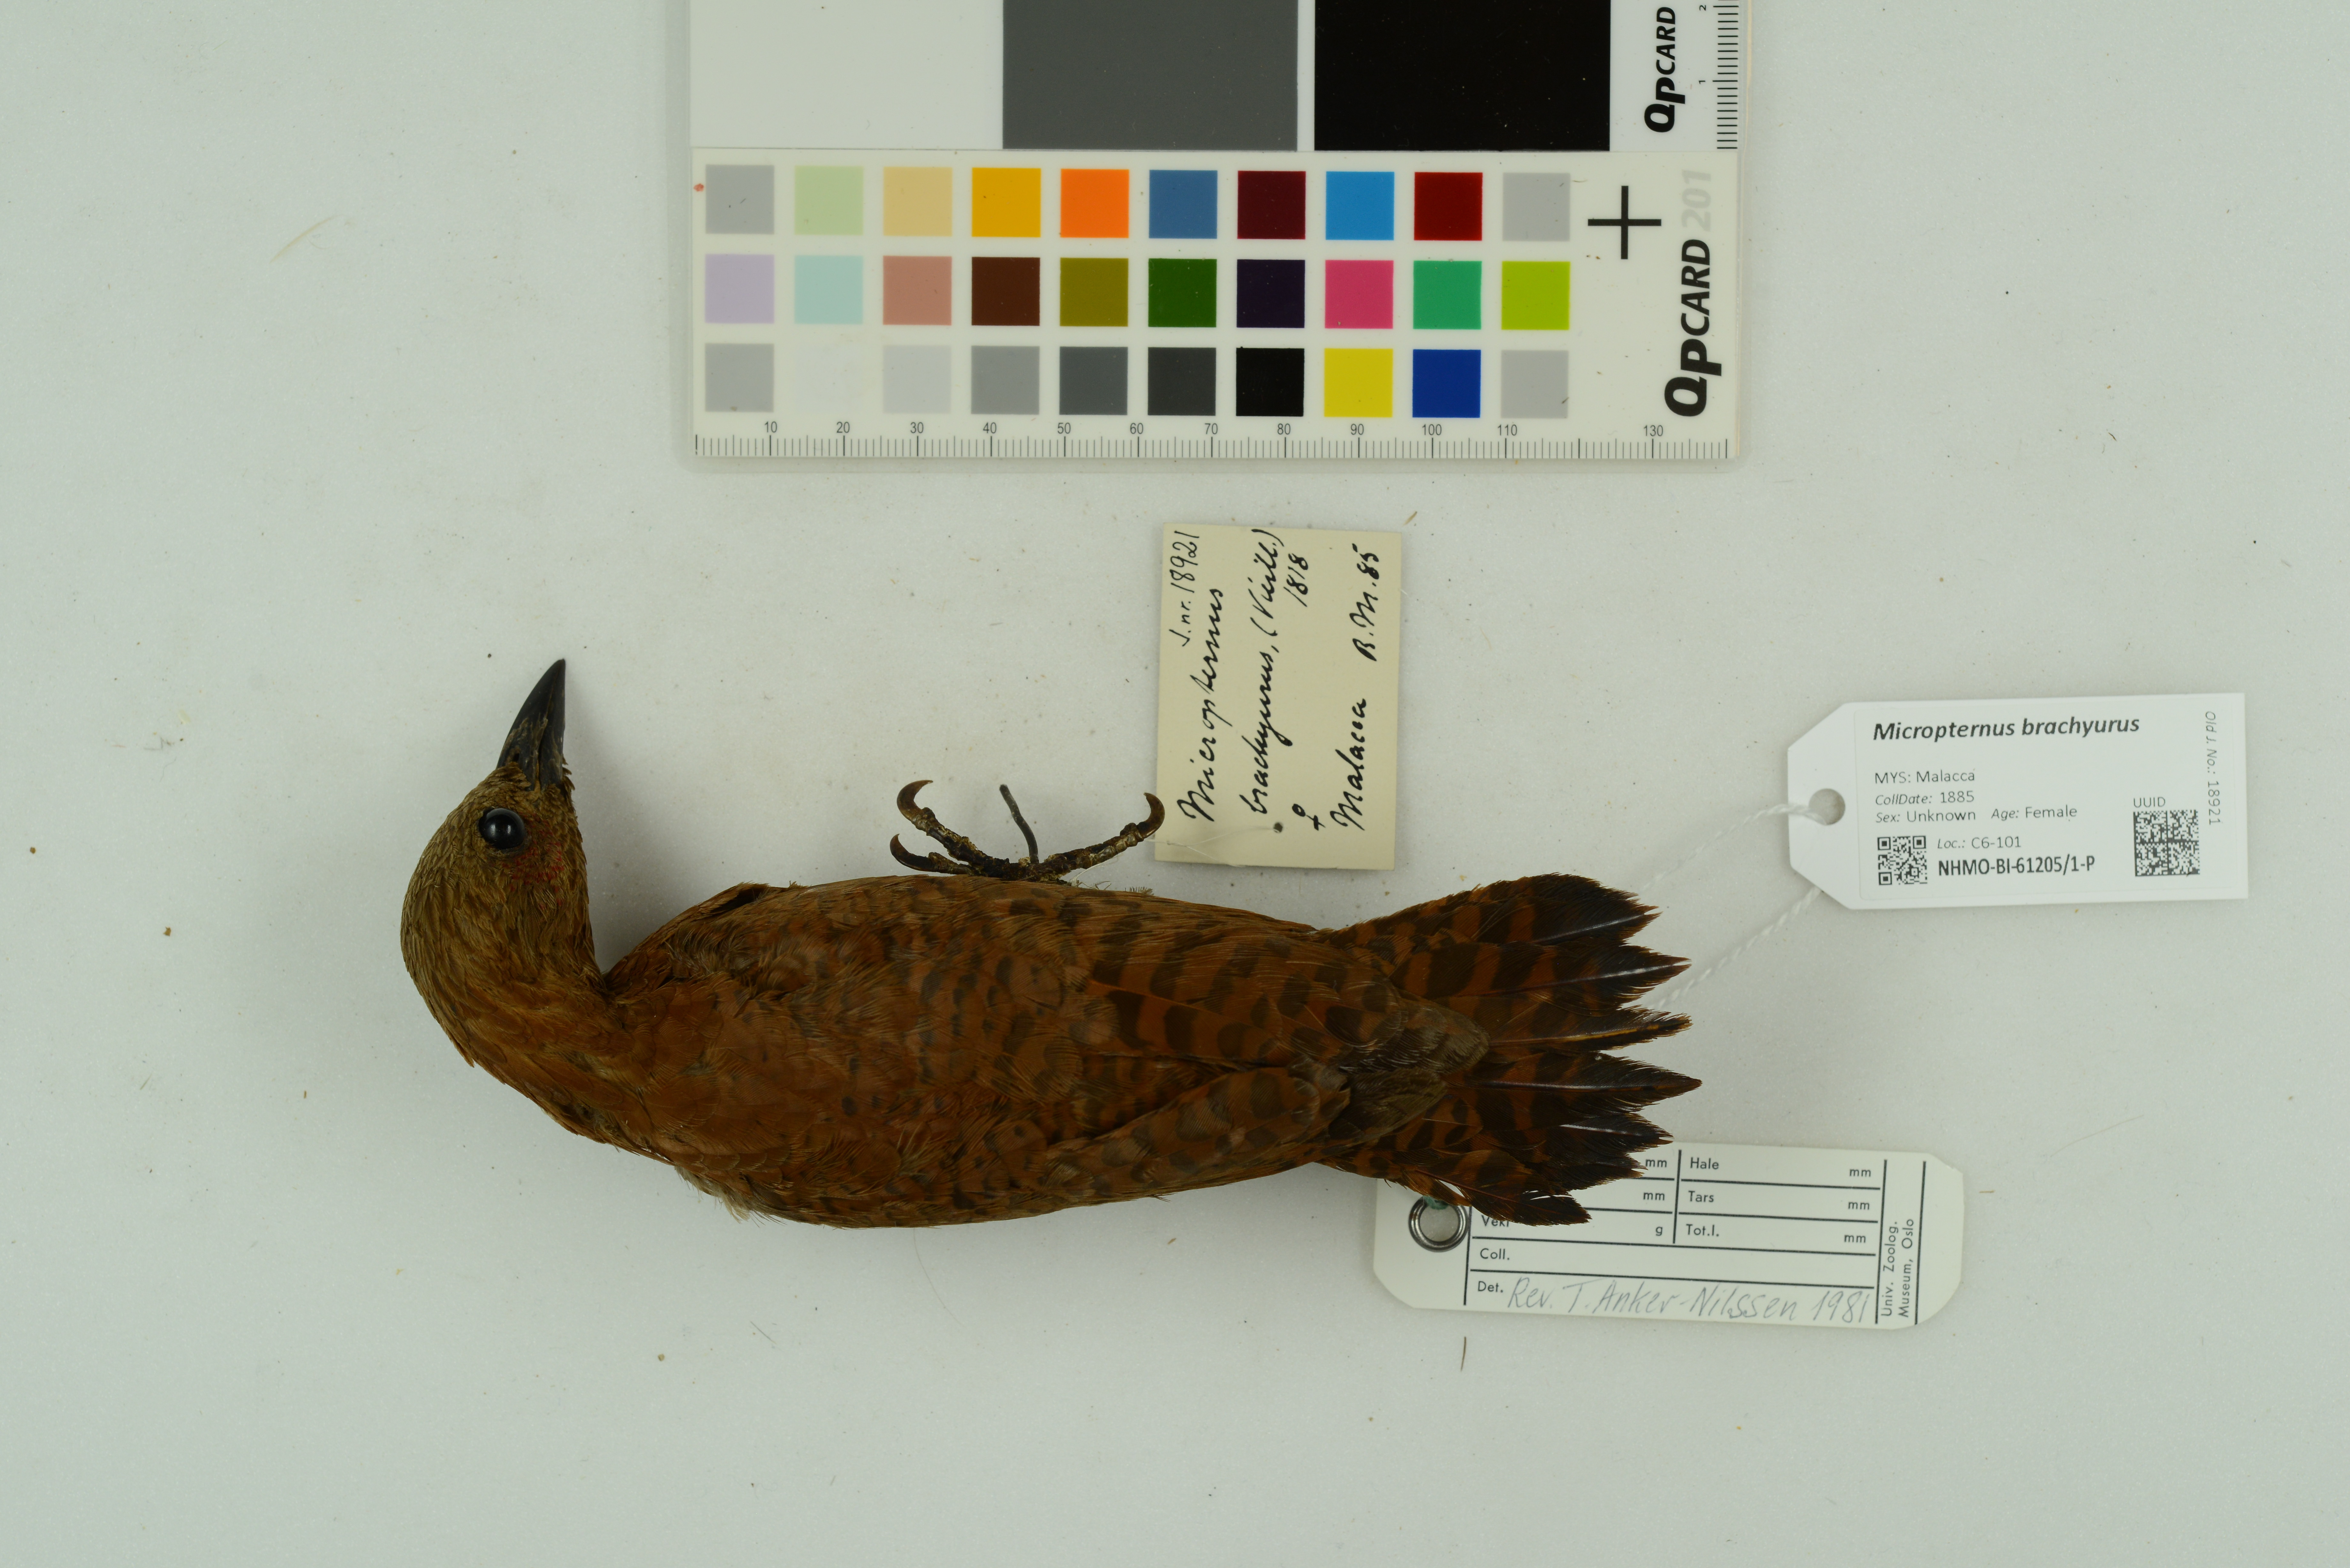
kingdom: Animalia
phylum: Chordata
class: Aves
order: Piciformes
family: Picidae
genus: Micropternus
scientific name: Micropternus brachyurus
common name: Rufous woodpecker
